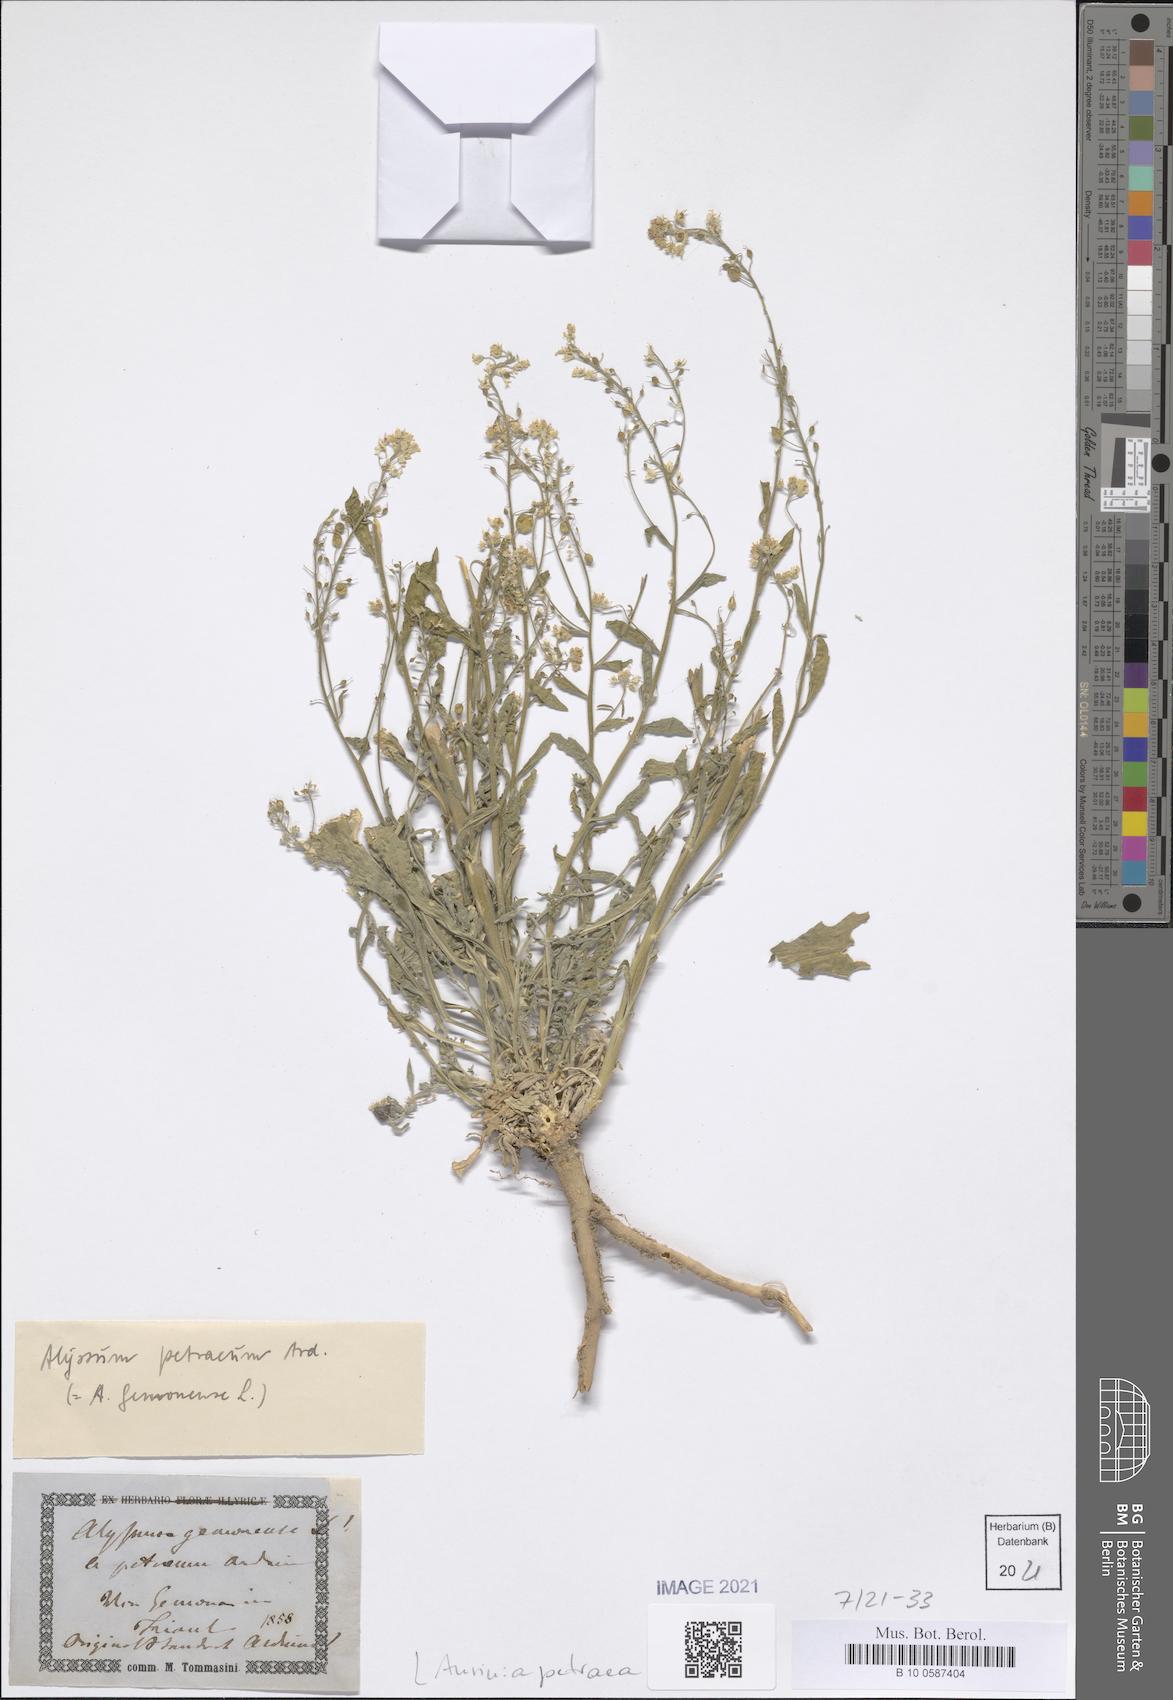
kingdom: Plantae
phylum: Tracheophyta
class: Magnoliopsida
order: Brassicales
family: Brassicaceae
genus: Aurinia
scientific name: Aurinia petraea
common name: Goldentuft
